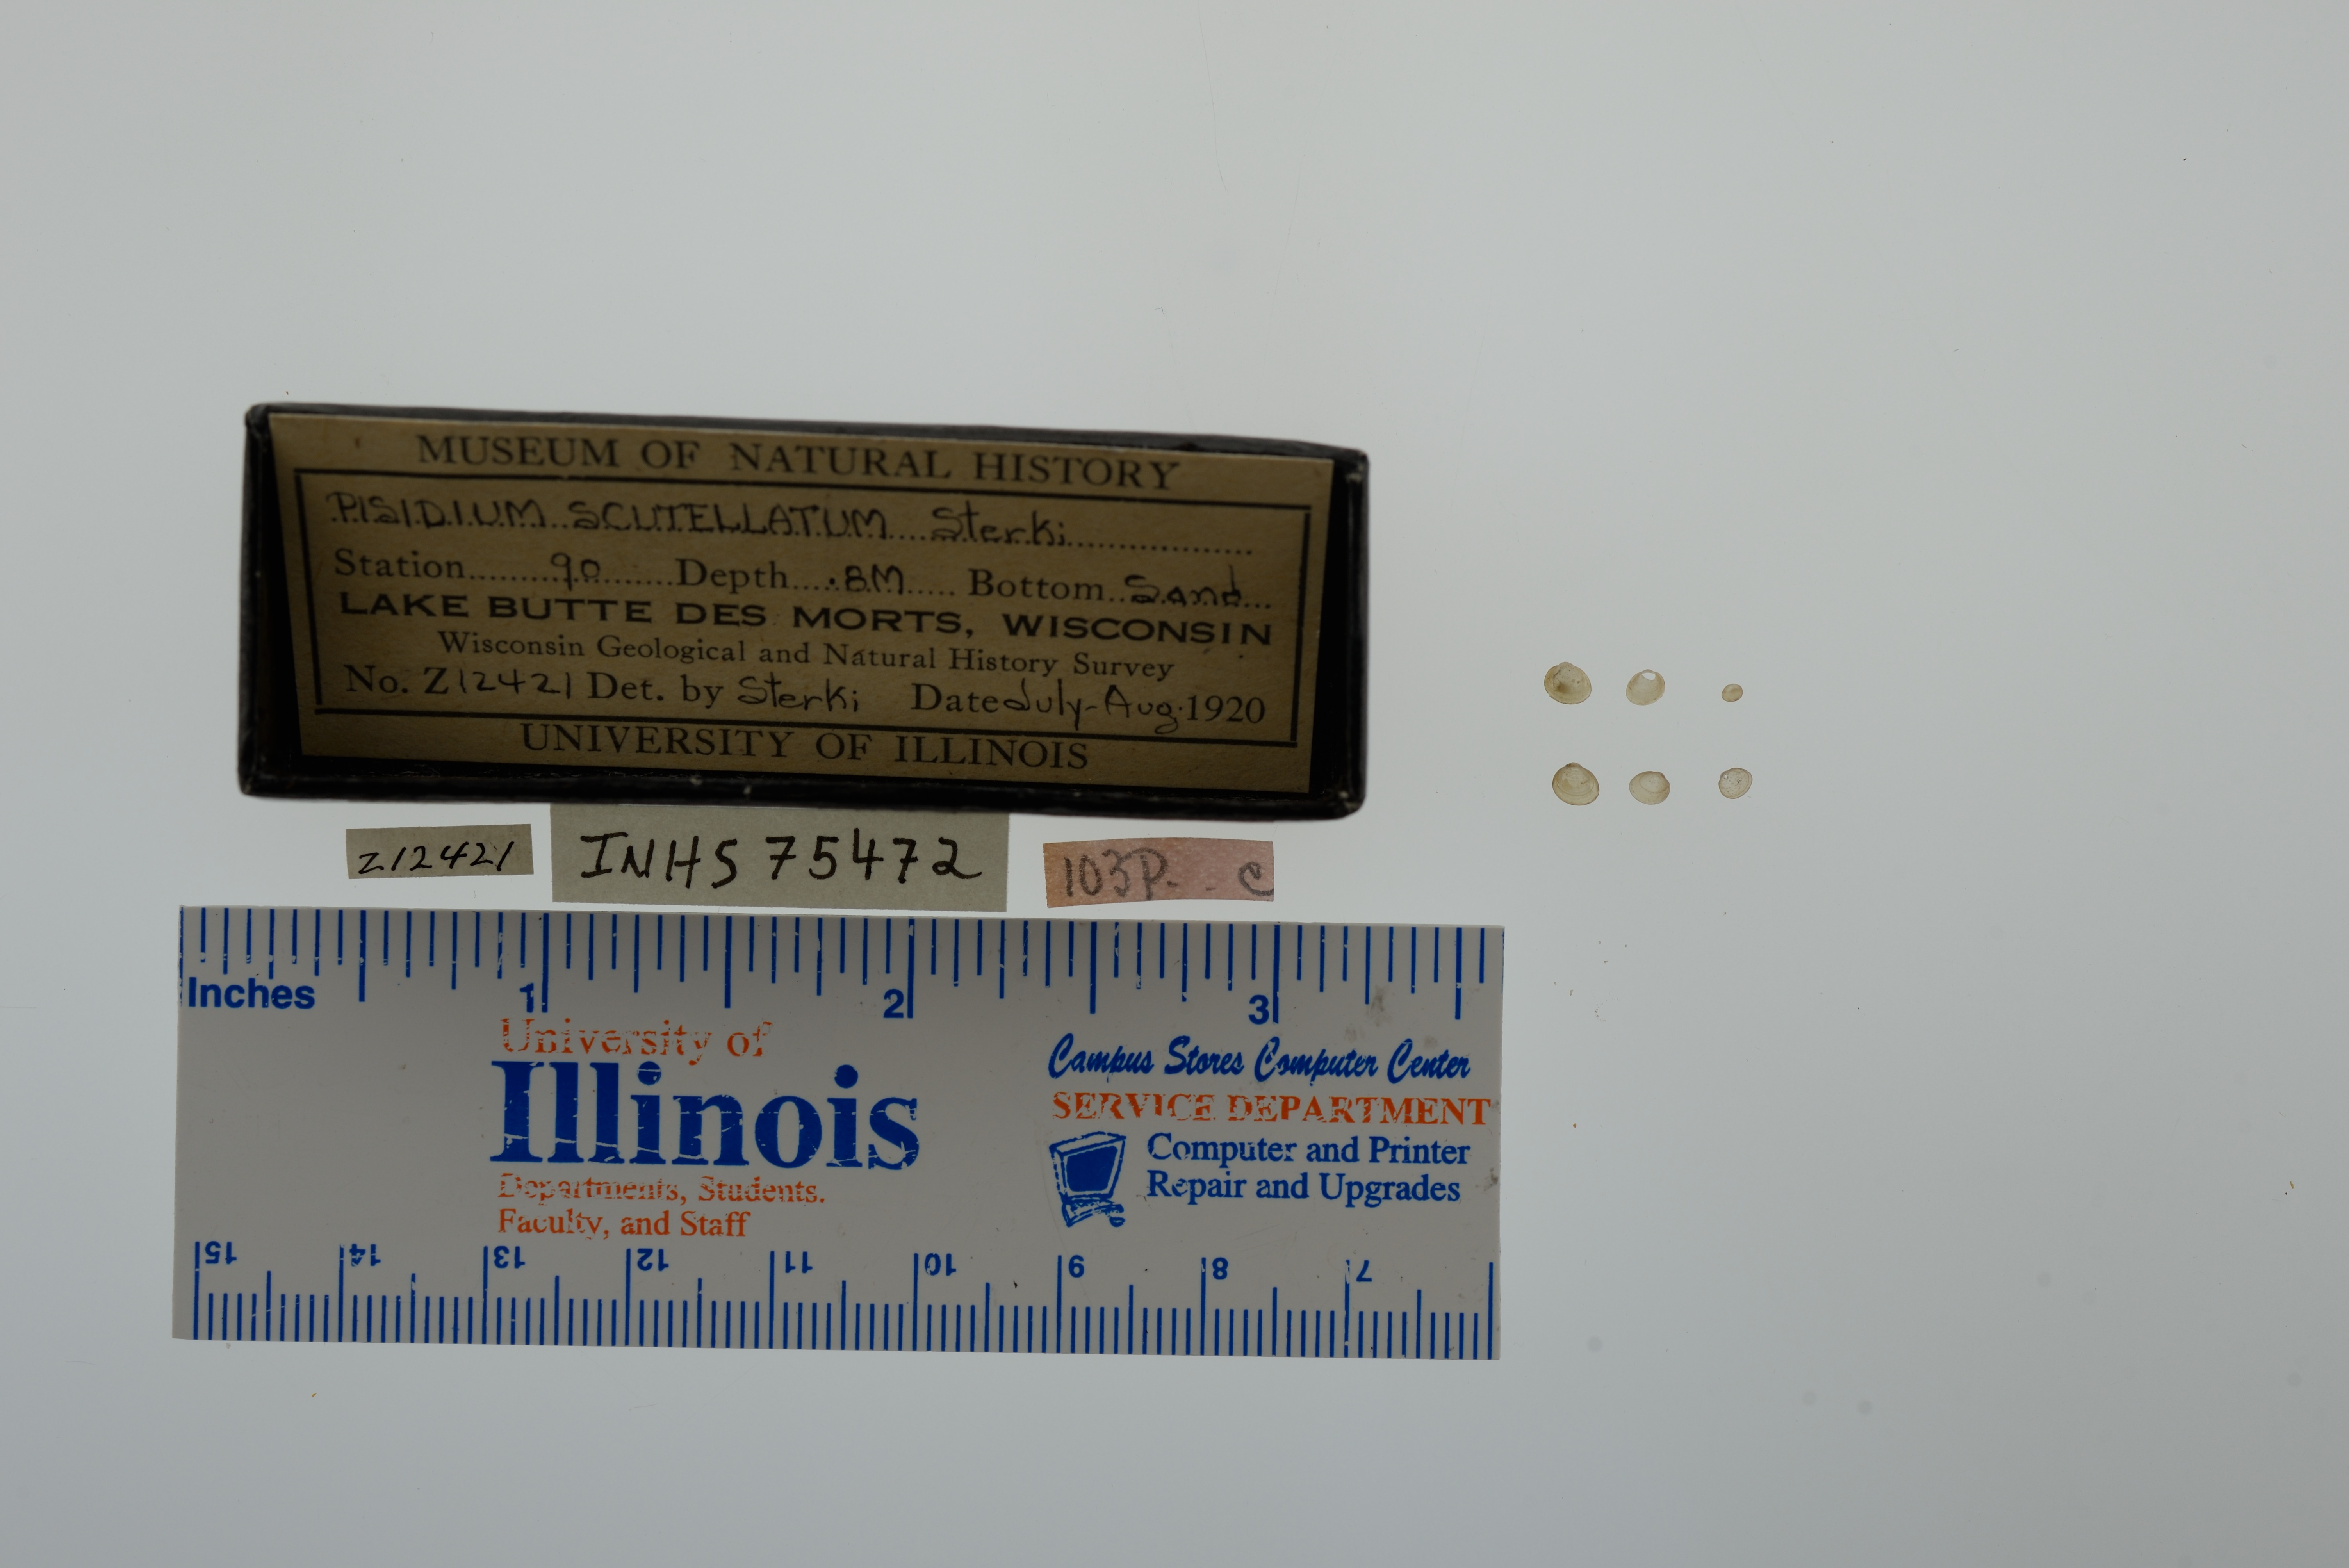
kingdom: Animalia
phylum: Mollusca
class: Bivalvia
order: Sphaeriida
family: Sphaeriidae
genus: Euglesa
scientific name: Euglesa lilljeborgii
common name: Lilljeborg peaclam
